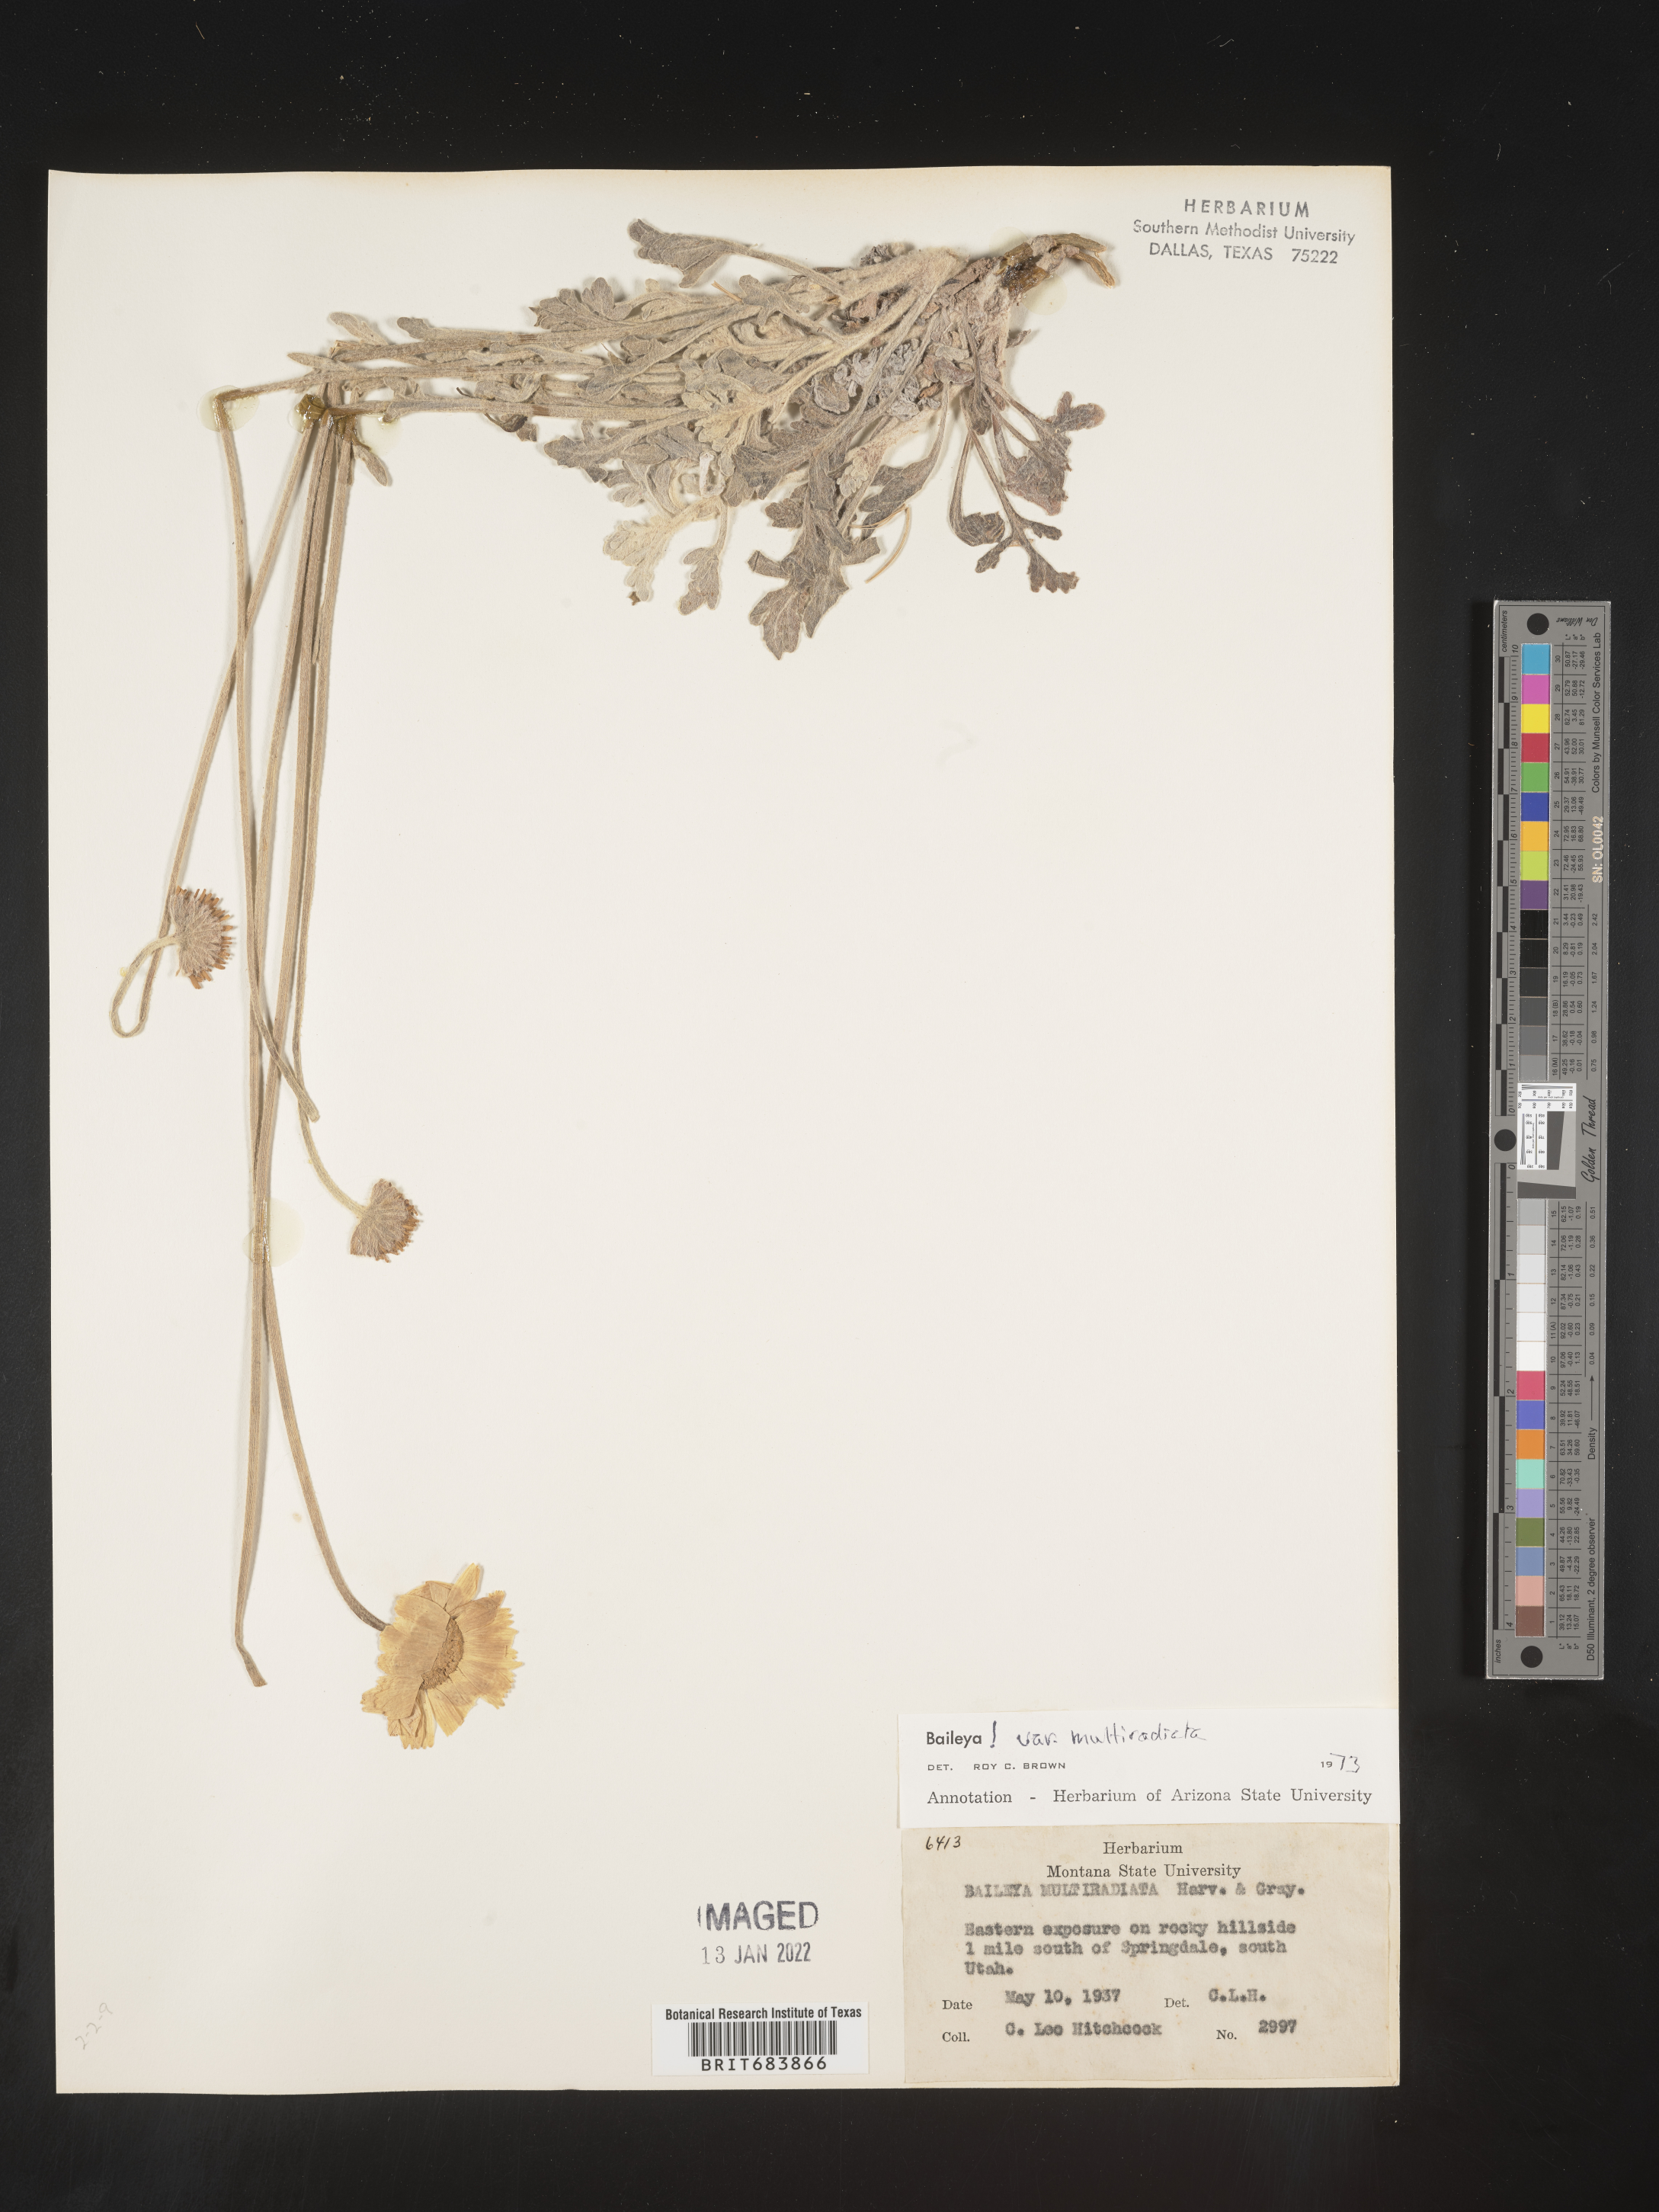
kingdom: Plantae
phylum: Tracheophyta
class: Magnoliopsida
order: Asterales
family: Asteraceae
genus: Baileya
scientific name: Baileya multiradiata
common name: Desert-marigold
